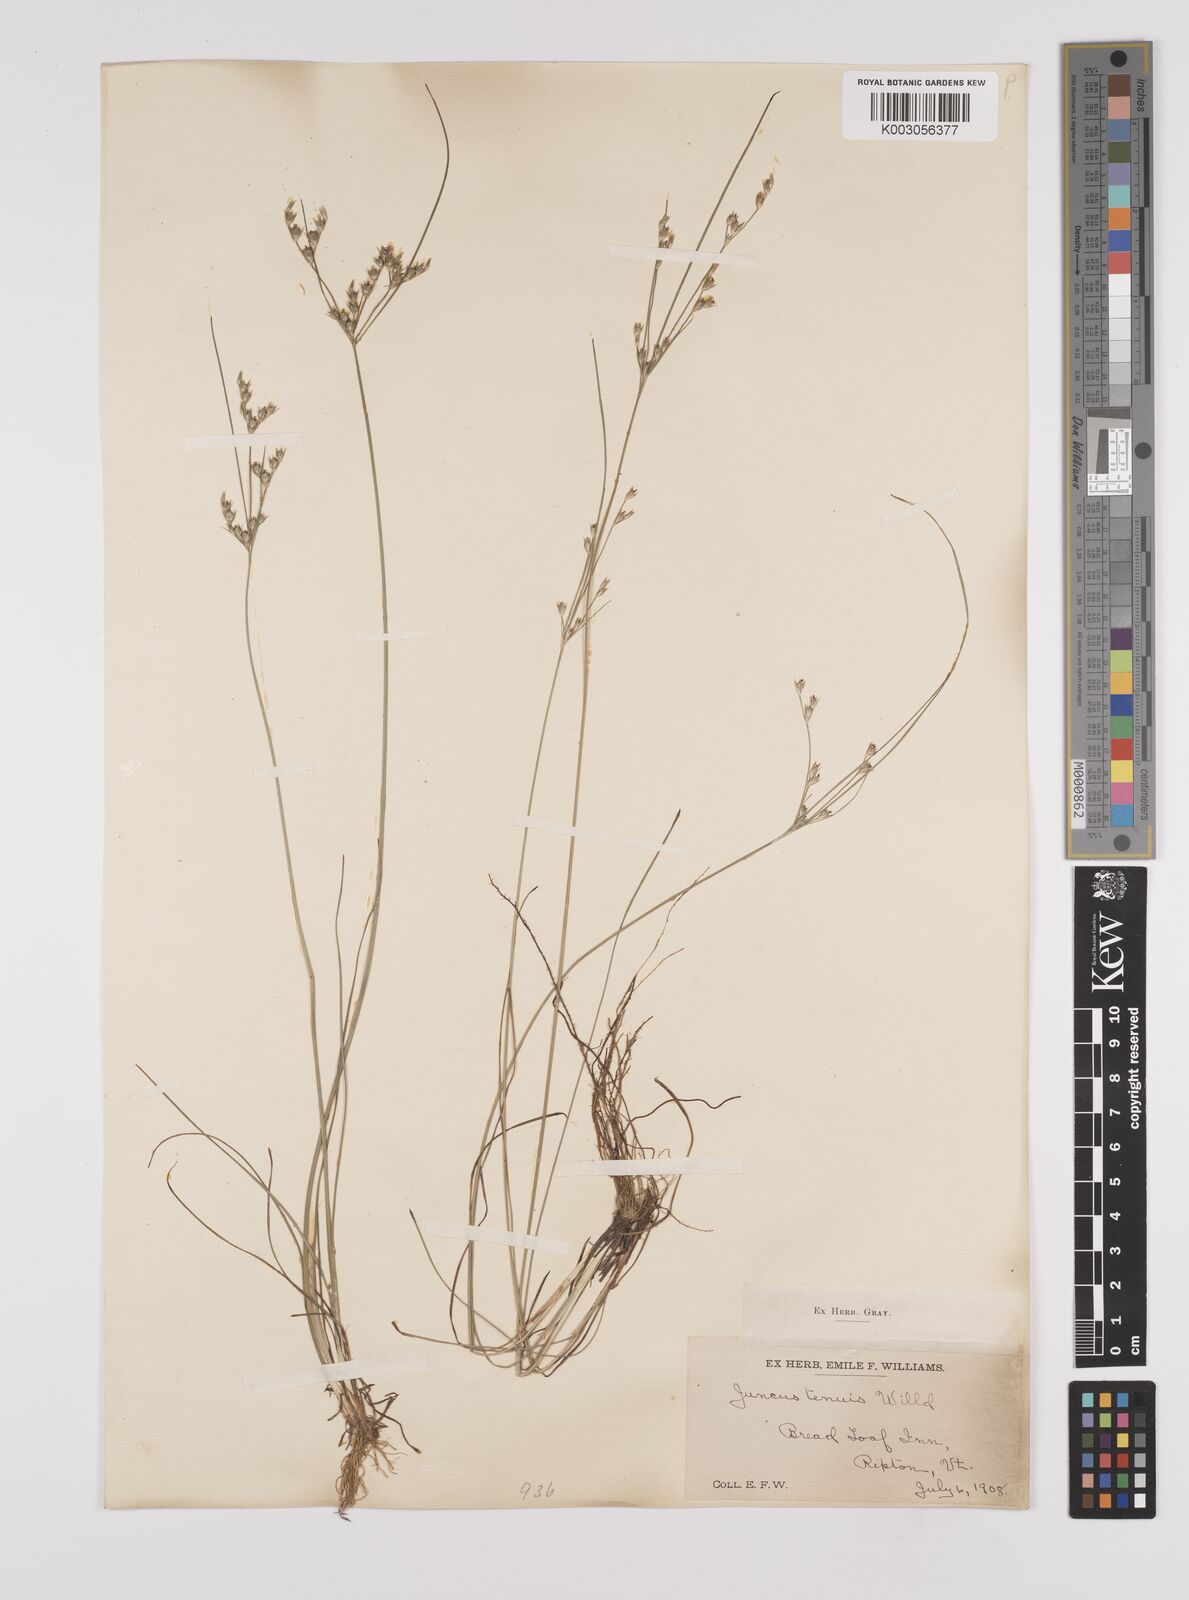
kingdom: Plantae
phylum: Tracheophyta
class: Liliopsida
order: Poales
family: Juncaceae
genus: Juncus
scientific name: Juncus tenuis
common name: Slender rush
